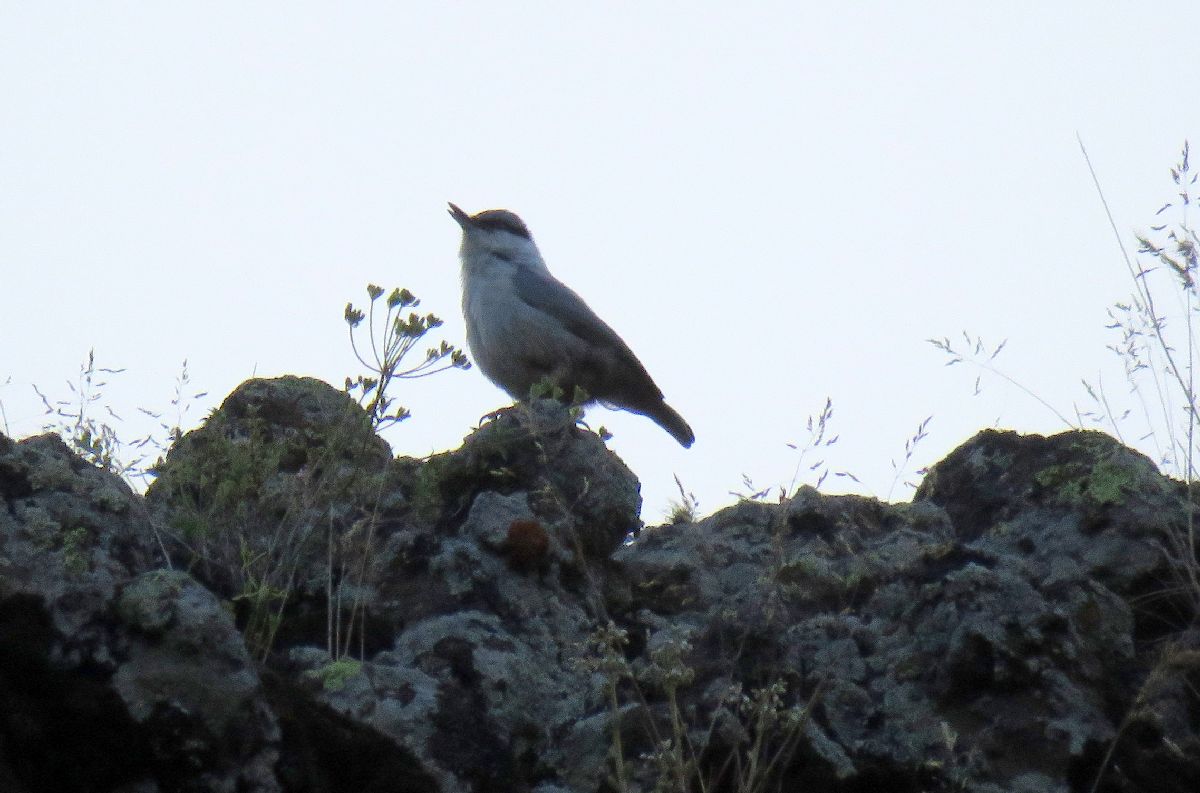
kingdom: Animalia
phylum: Chordata
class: Aves
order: Passeriformes
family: Sittidae
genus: Sitta
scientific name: Sitta neumayer
